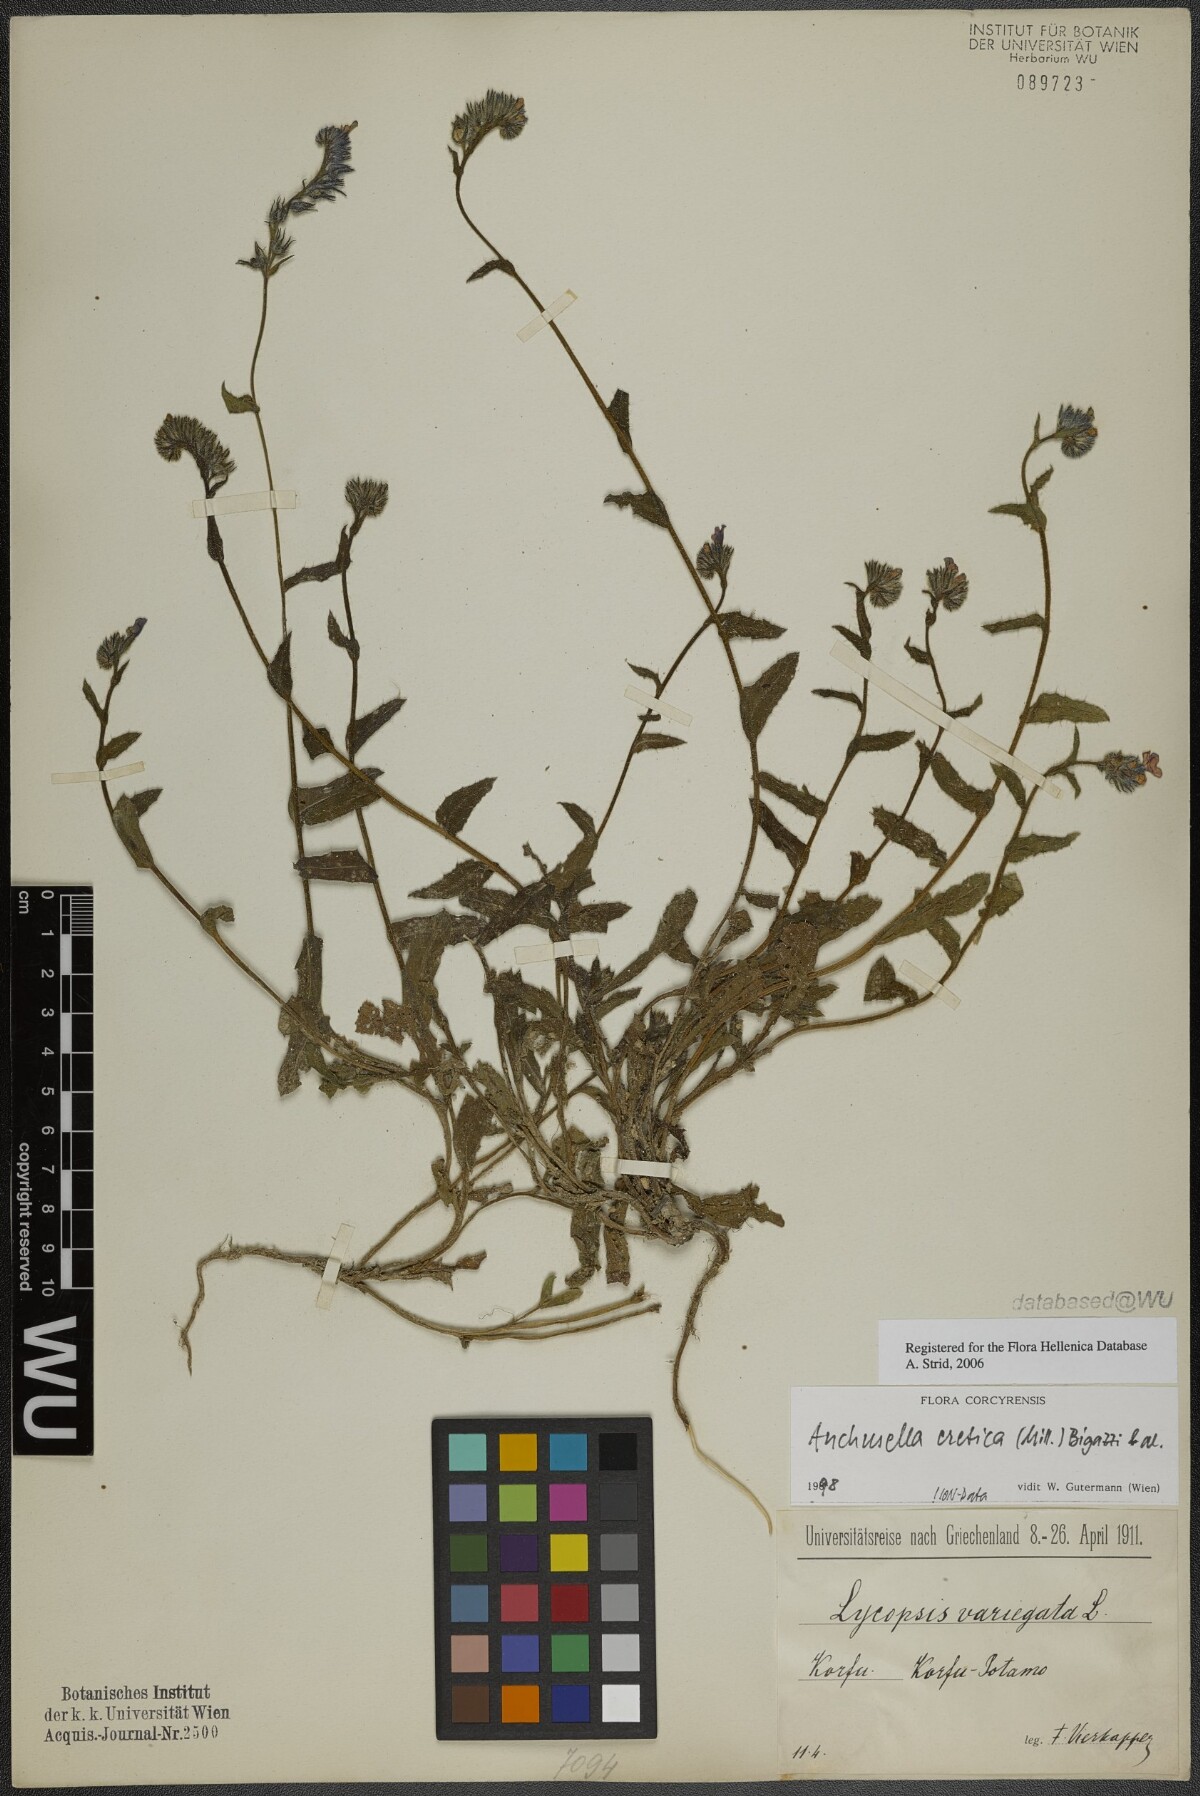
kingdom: Plantae
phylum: Tracheophyta
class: Magnoliopsida
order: Boraginales
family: Boraginaceae
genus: Anchusella
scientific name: Anchusella cretica
